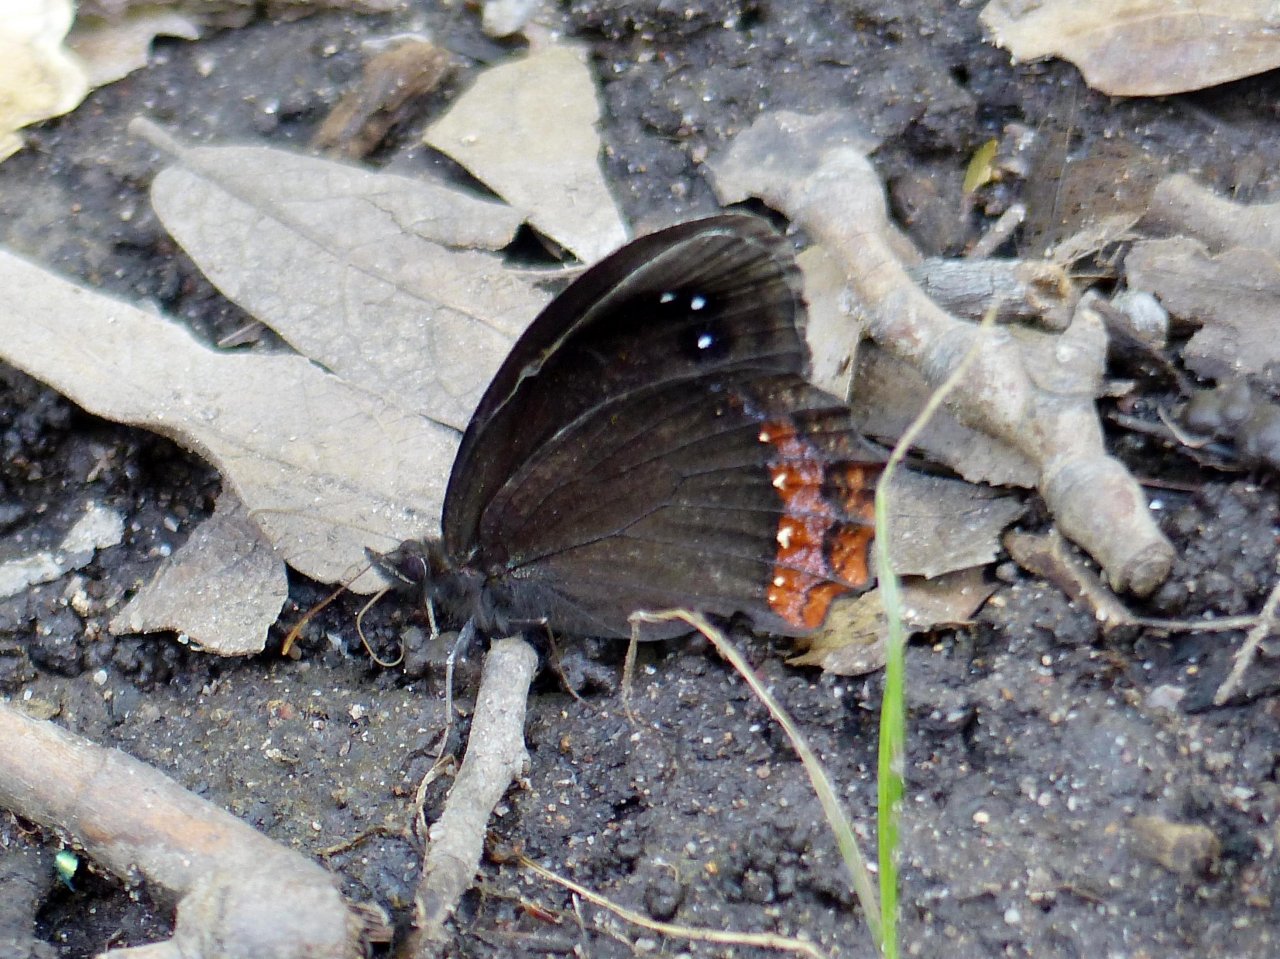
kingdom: Animalia
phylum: Arthropoda
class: Insecta
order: Lepidoptera
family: Nymphalidae
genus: Gyrocheilus
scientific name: Gyrocheilus patrobas
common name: Red-bordered Satyr
